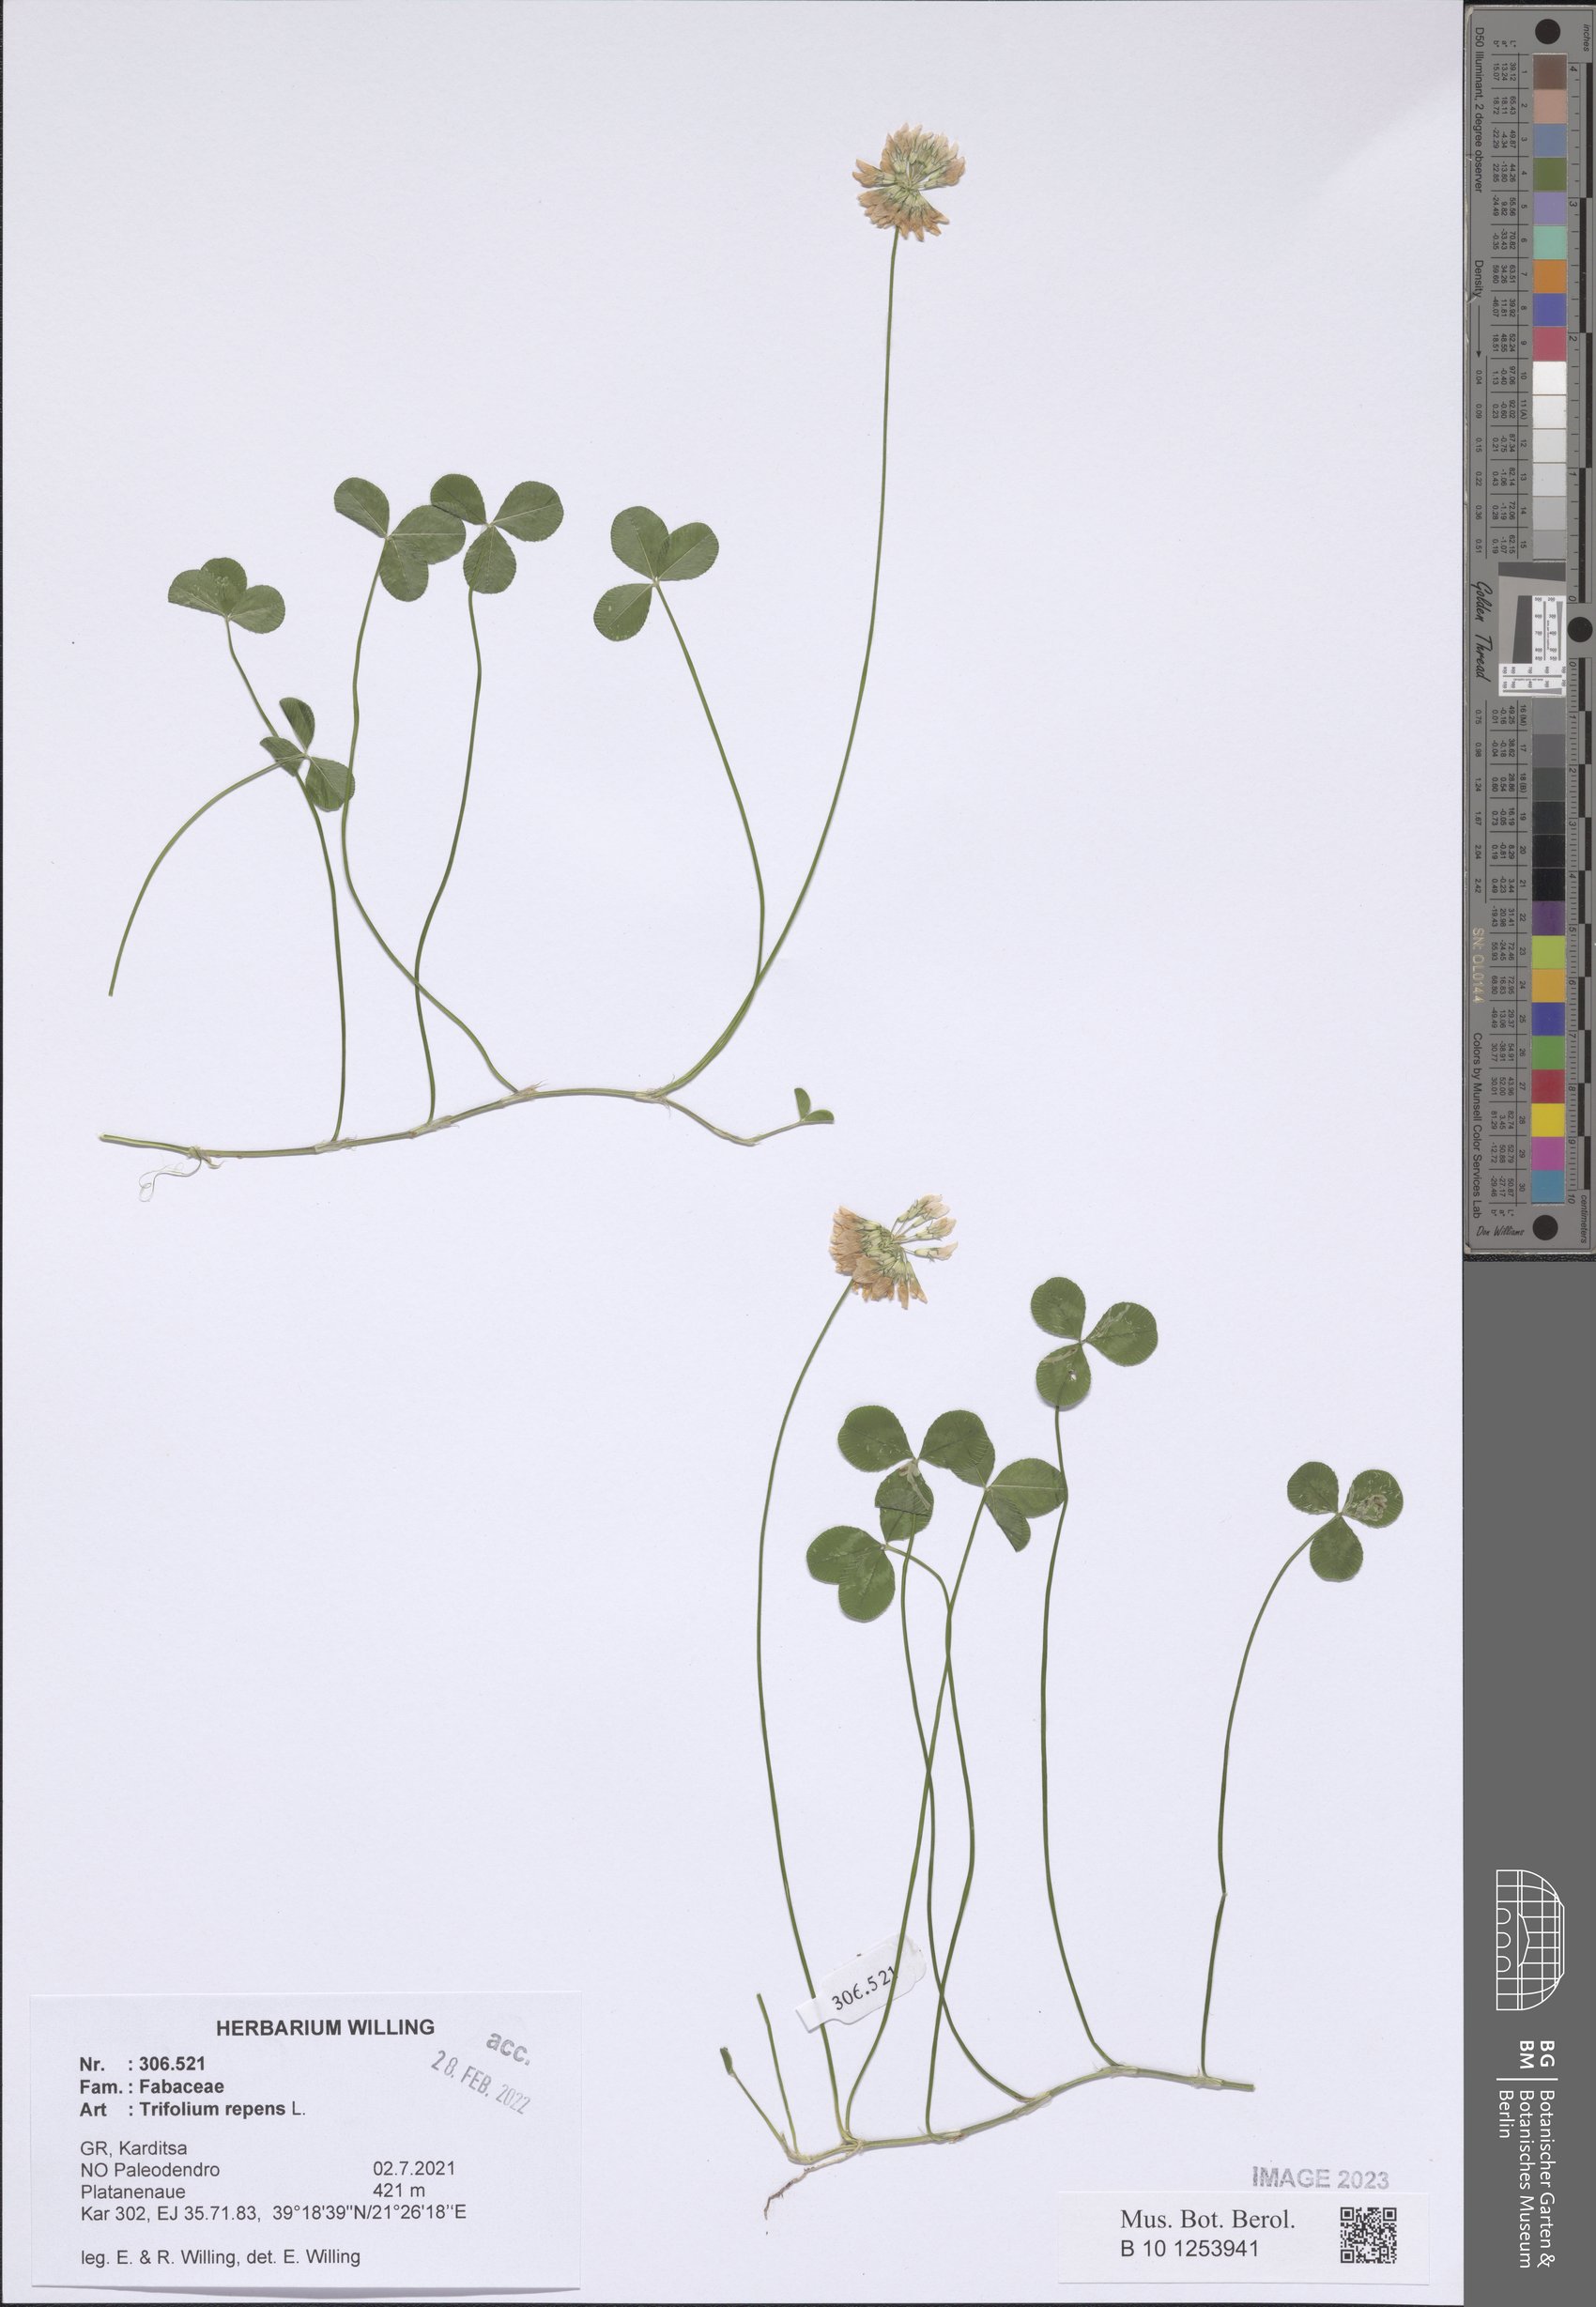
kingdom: Plantae
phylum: Tracheophyta
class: Magnoliopsida
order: Fabales
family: Fabaceae
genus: Trifolium
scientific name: Trifolium repens
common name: White clover
